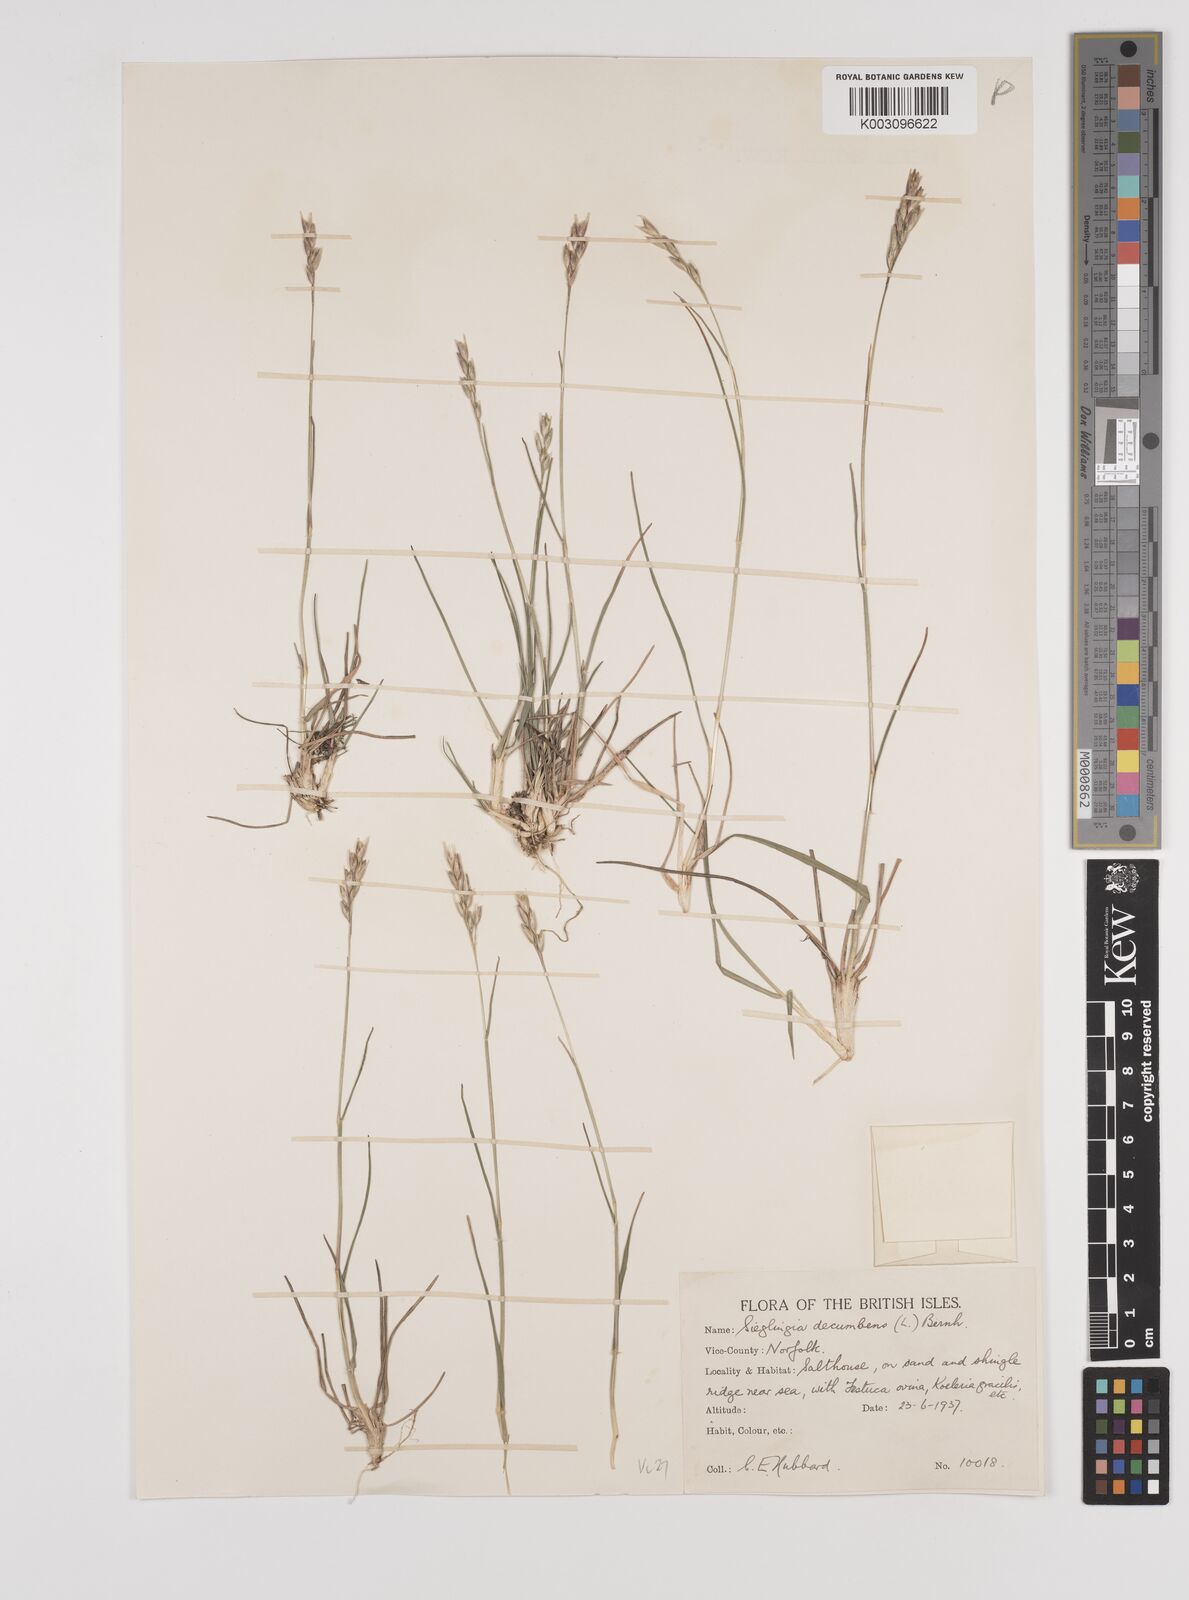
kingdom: Plantae
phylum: Tracheophyta
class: Liliopsida
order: Poales
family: Poaceae
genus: Danthonia
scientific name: Danthonia decumbens
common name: Common heathgrass
